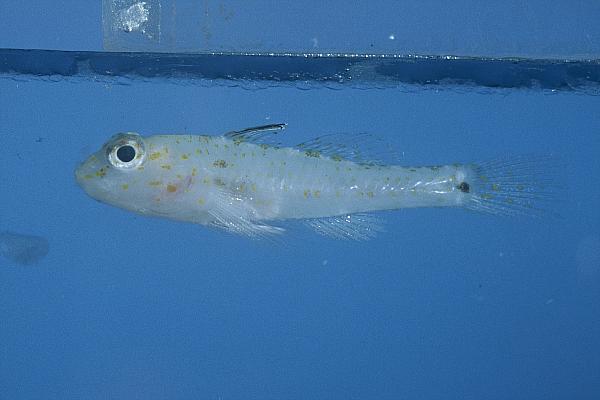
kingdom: Animalia
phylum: Chordata
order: Perciformes
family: Gobiidae
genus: Fusigobius
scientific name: Fusigobius
